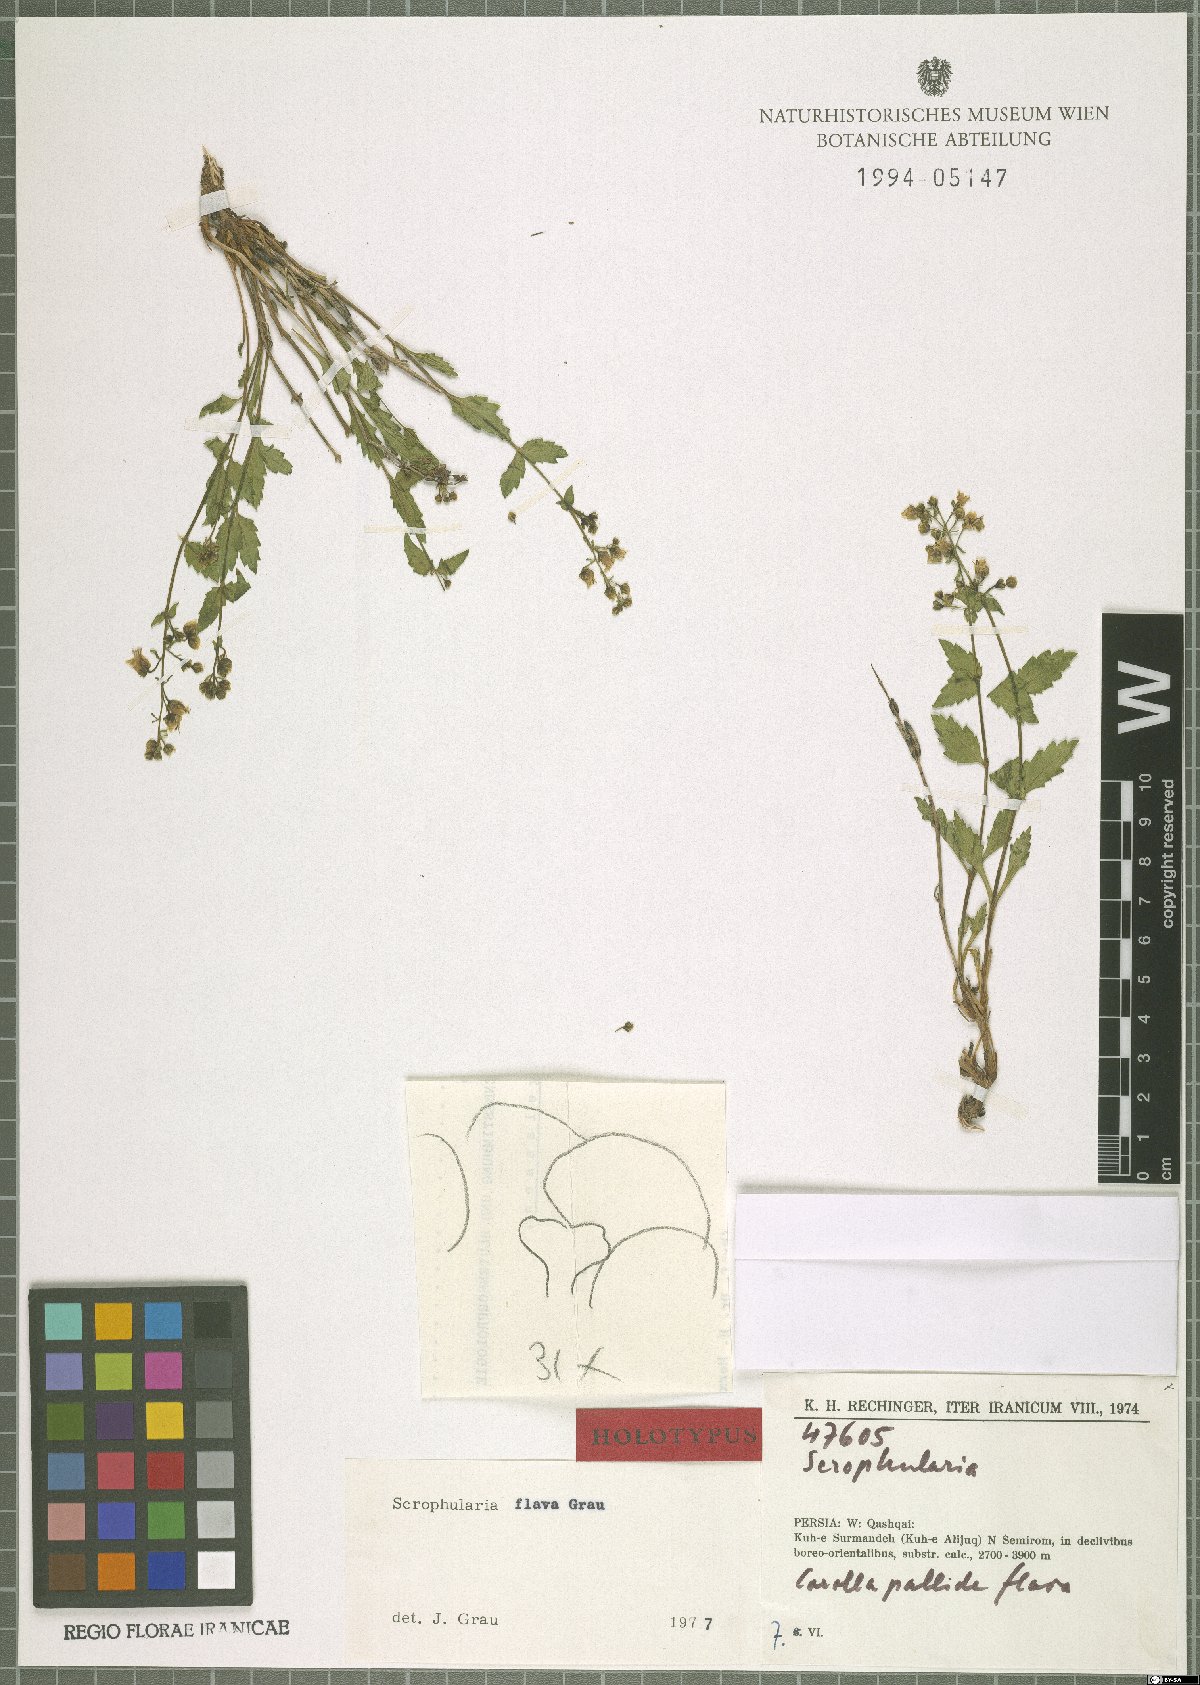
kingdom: Plantae
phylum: Tracheophyta
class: Magnoliopsida
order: Lamiales
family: Scrophulariaceae
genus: Scrophularia
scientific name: Scrophularia flava
